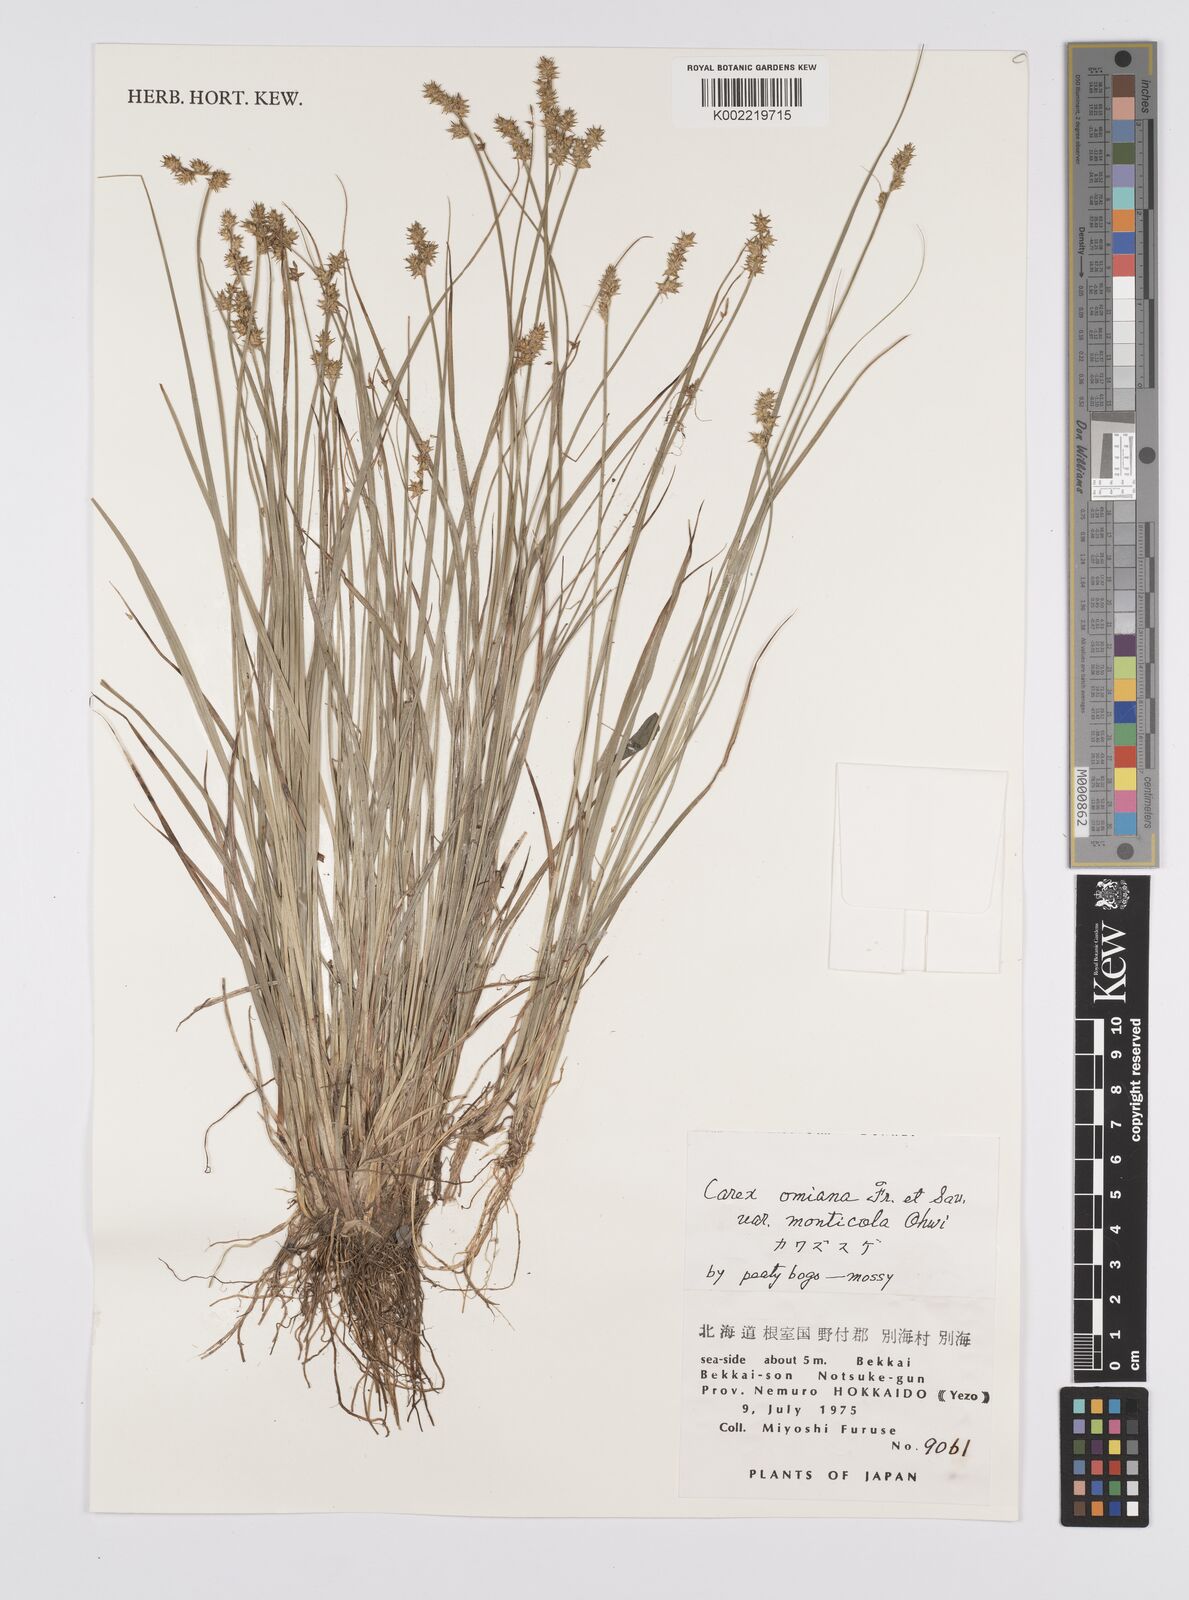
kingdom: Plantae
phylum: Tracheophyta
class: Liliopsida
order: Poales
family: Cyperaceae
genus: Carex
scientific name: Carex omiana
